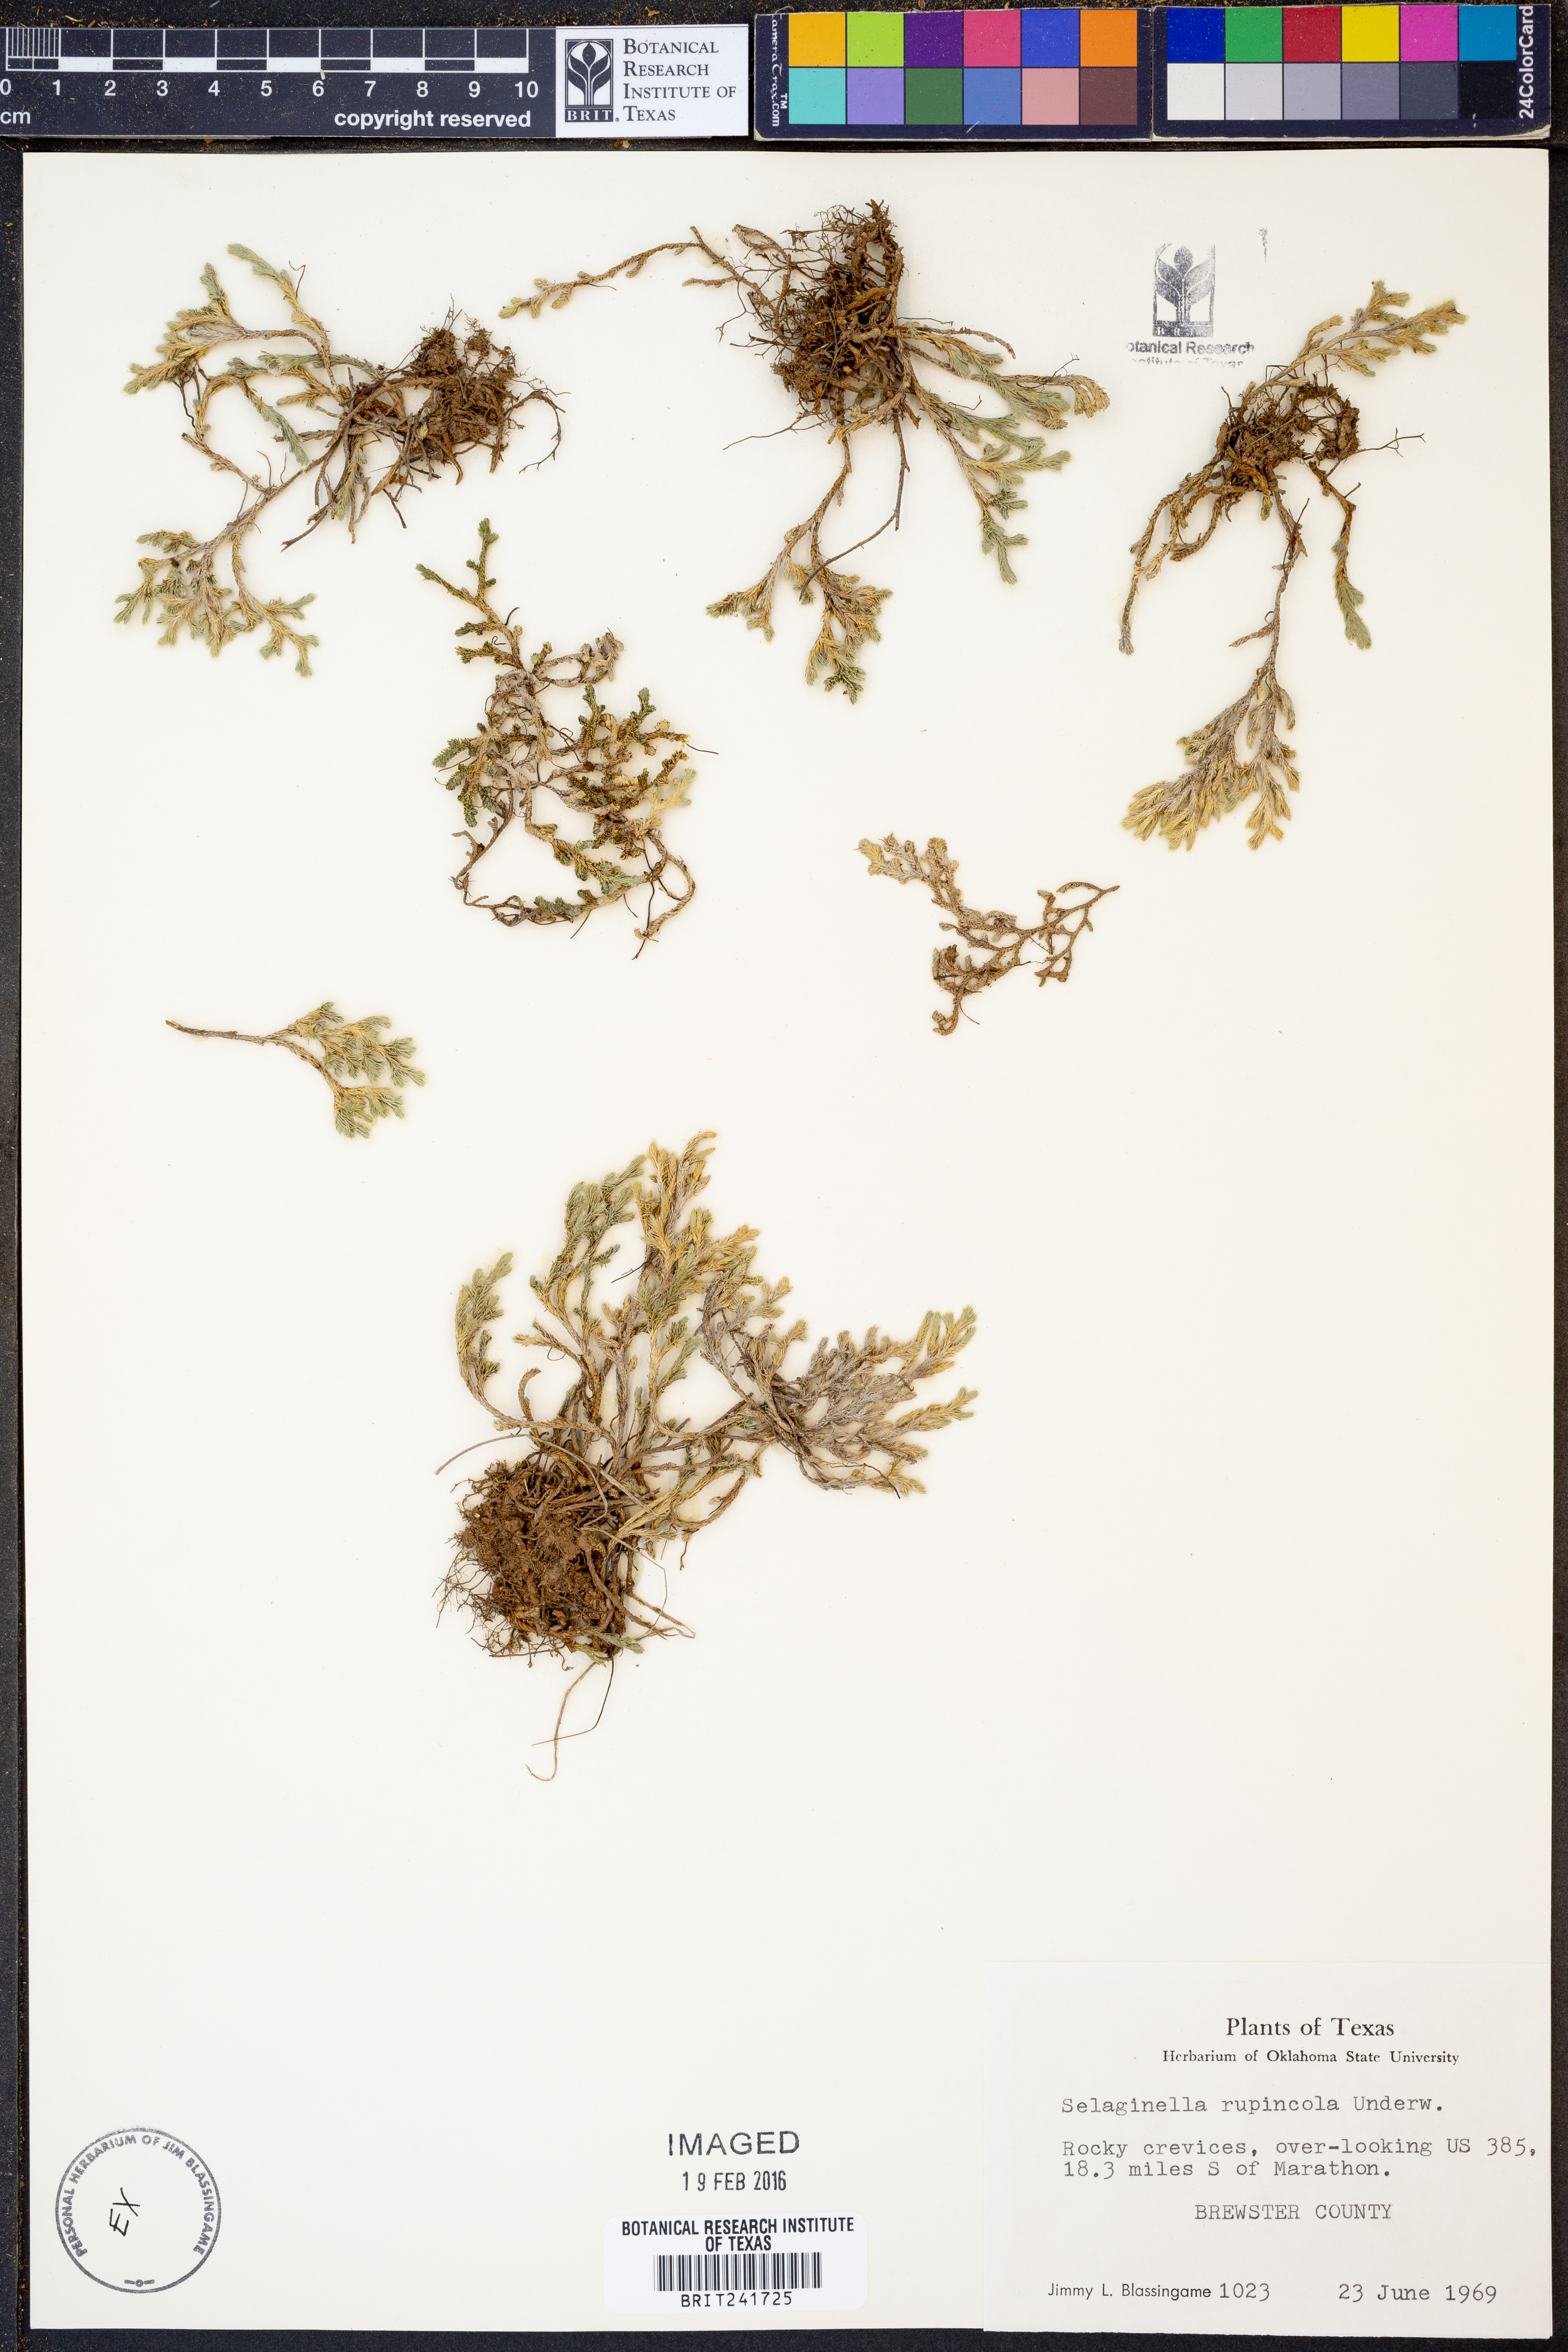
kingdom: Plantae
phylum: Tracheophyta
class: Lycopodiopsida
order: Selaginellales
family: Selaginellaceae
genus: Selaginella
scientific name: Selaginella rupincola
